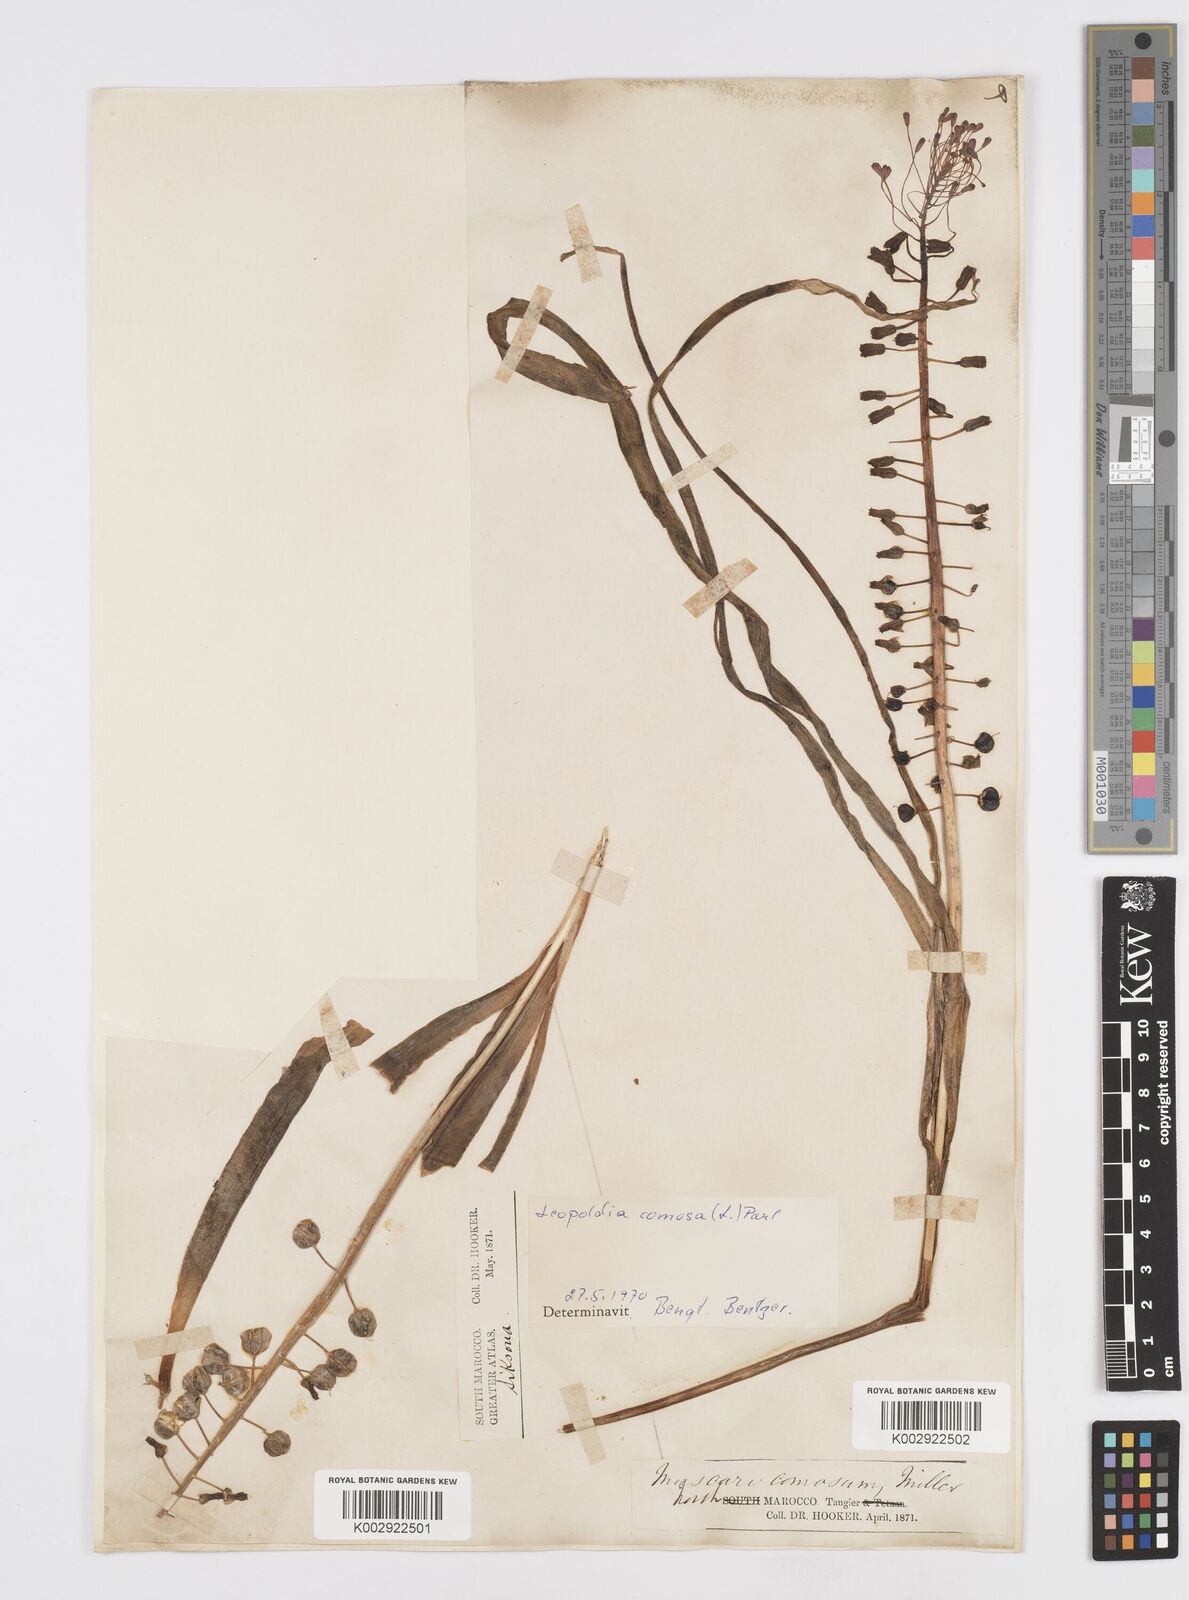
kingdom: Plantae
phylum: Tracheophyta
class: Liliopsida
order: Asparagales
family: Asparagaceae
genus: Muscari
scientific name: Muscari comosum
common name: Tassel hyacinth
